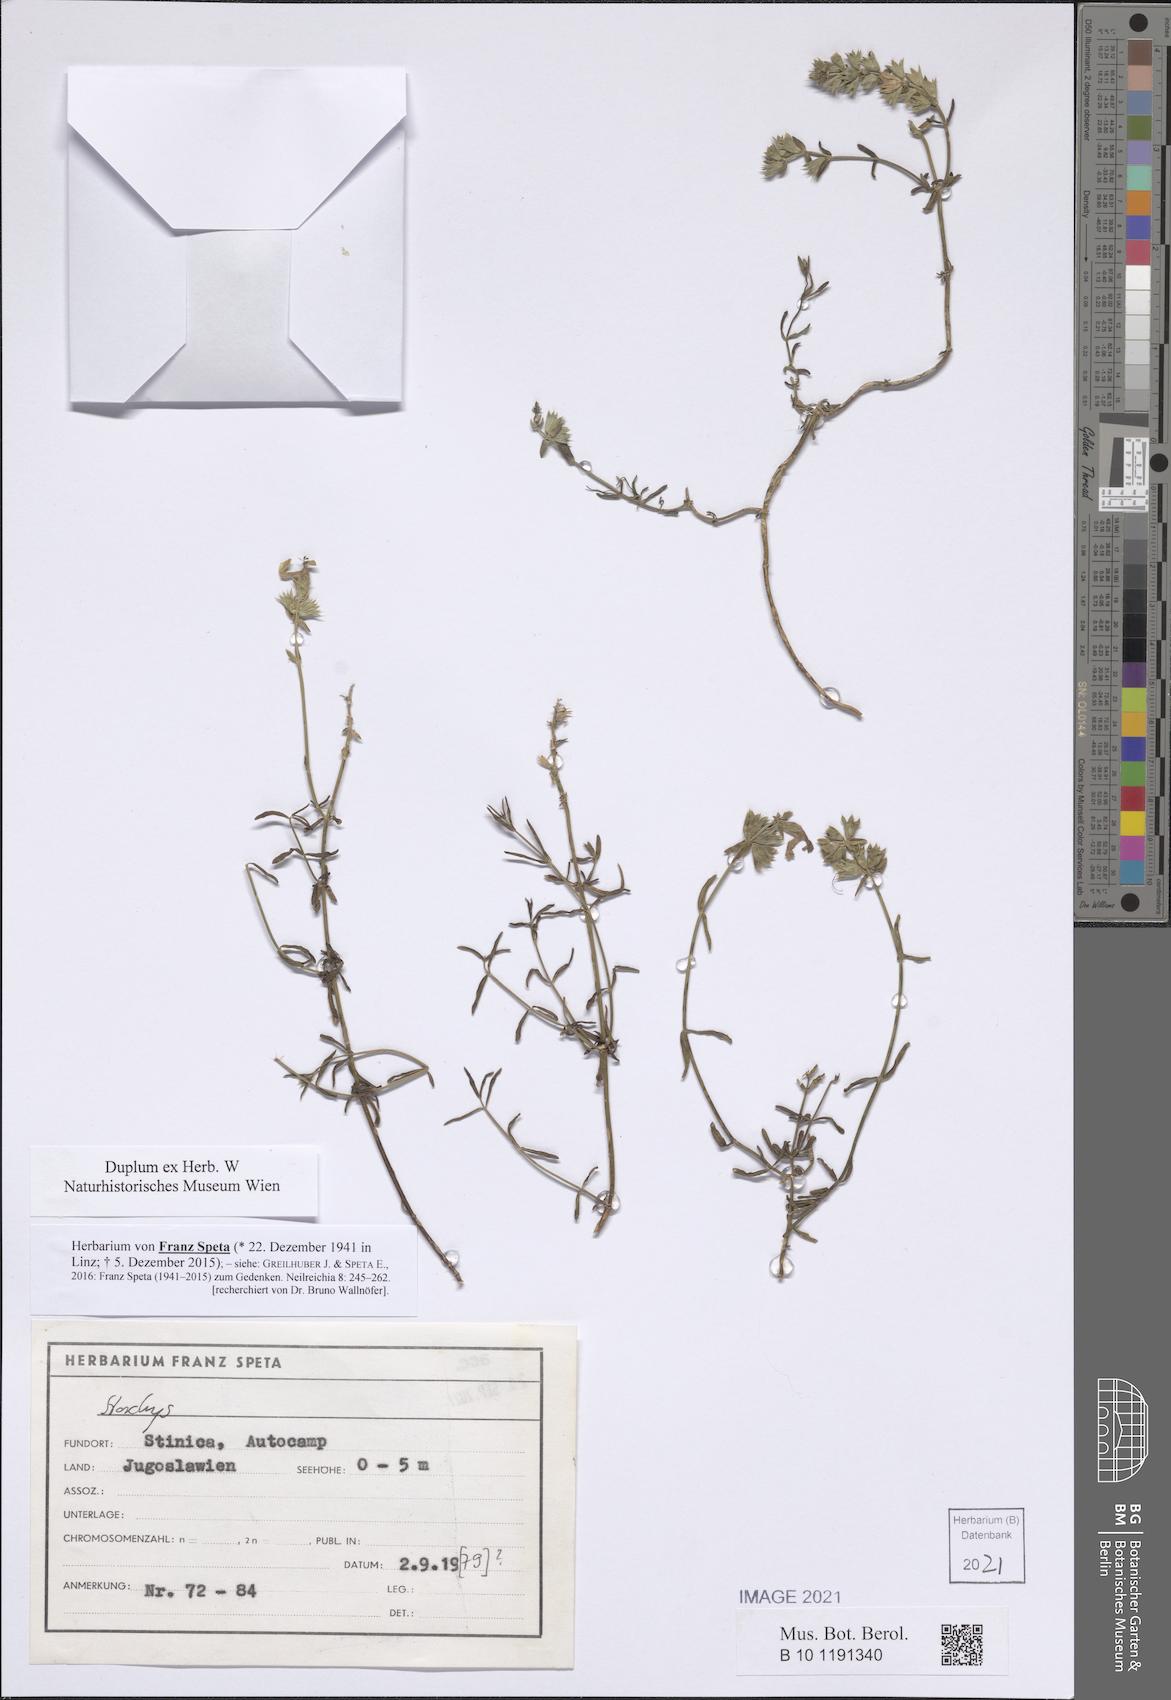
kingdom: Plantae
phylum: Tracheophyta
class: Magnoliopsida
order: Lamiales
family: Lamiaceae
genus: Stachys
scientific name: Stachys
